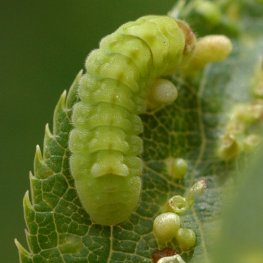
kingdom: Animalia
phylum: Arthropoda
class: Insecta
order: Lepidoptera
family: Lycaenidae
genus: Celastrina
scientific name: Celastrina serotina
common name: Cherry Gall Azure
